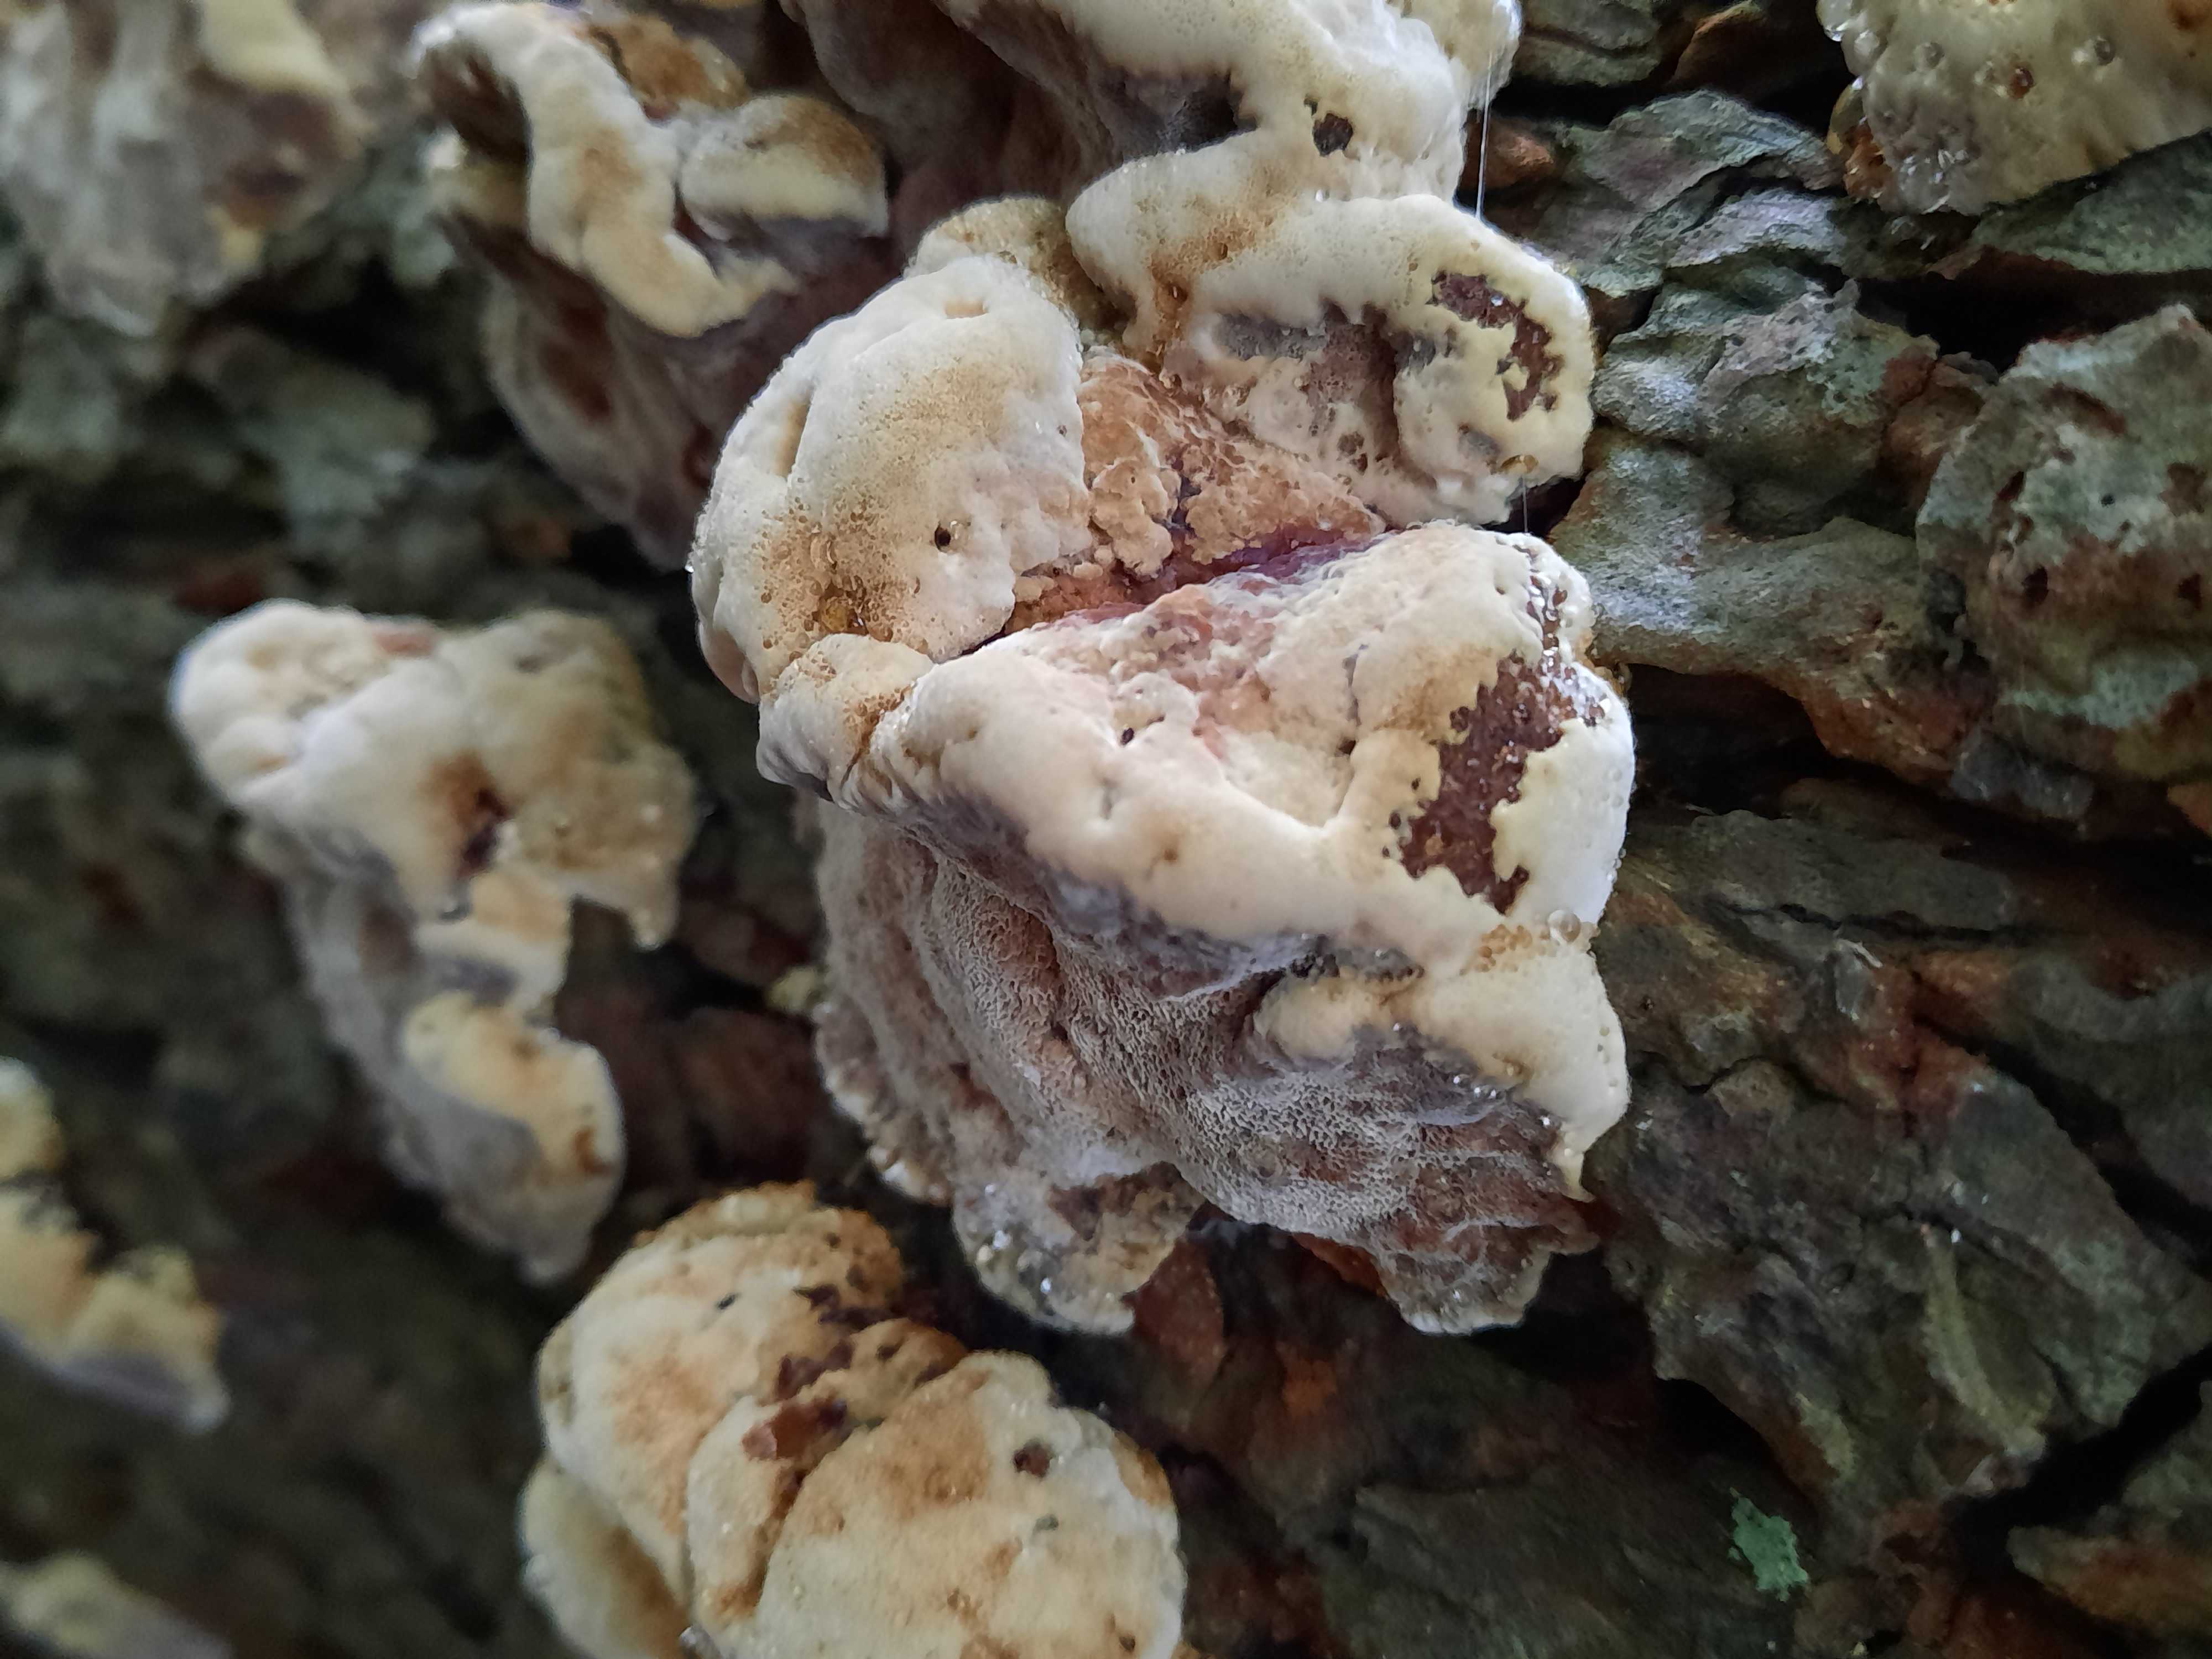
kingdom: Fungi
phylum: Basidiomycota
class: Agaricomycetes
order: Hymenochaetales
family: Hymenochaetaceae
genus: Xanthoporia
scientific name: Xanthoporia radiata
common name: elle-spejlporesvamp
